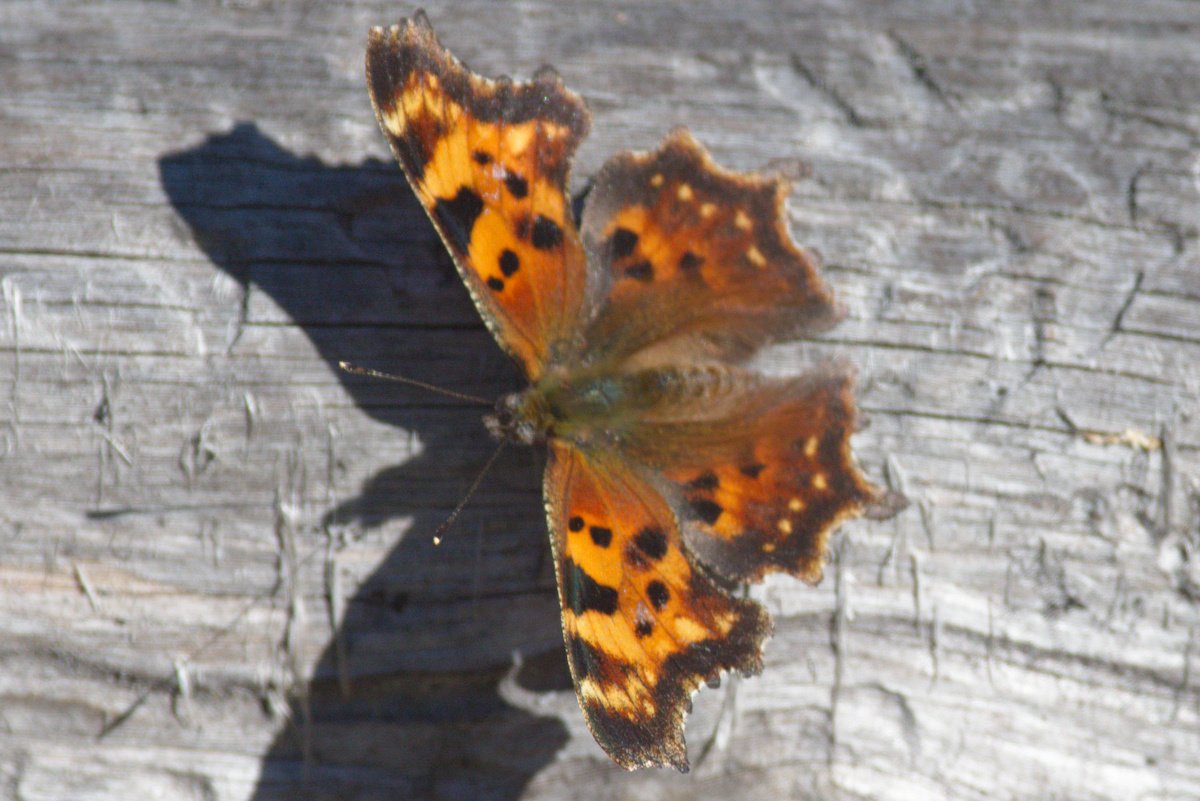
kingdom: Animalia
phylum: Arthropoda
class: Insecta
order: Lepidoptera
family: Nymphalidae
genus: Polygonia
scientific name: Polygonia faunus
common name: Green Comma
